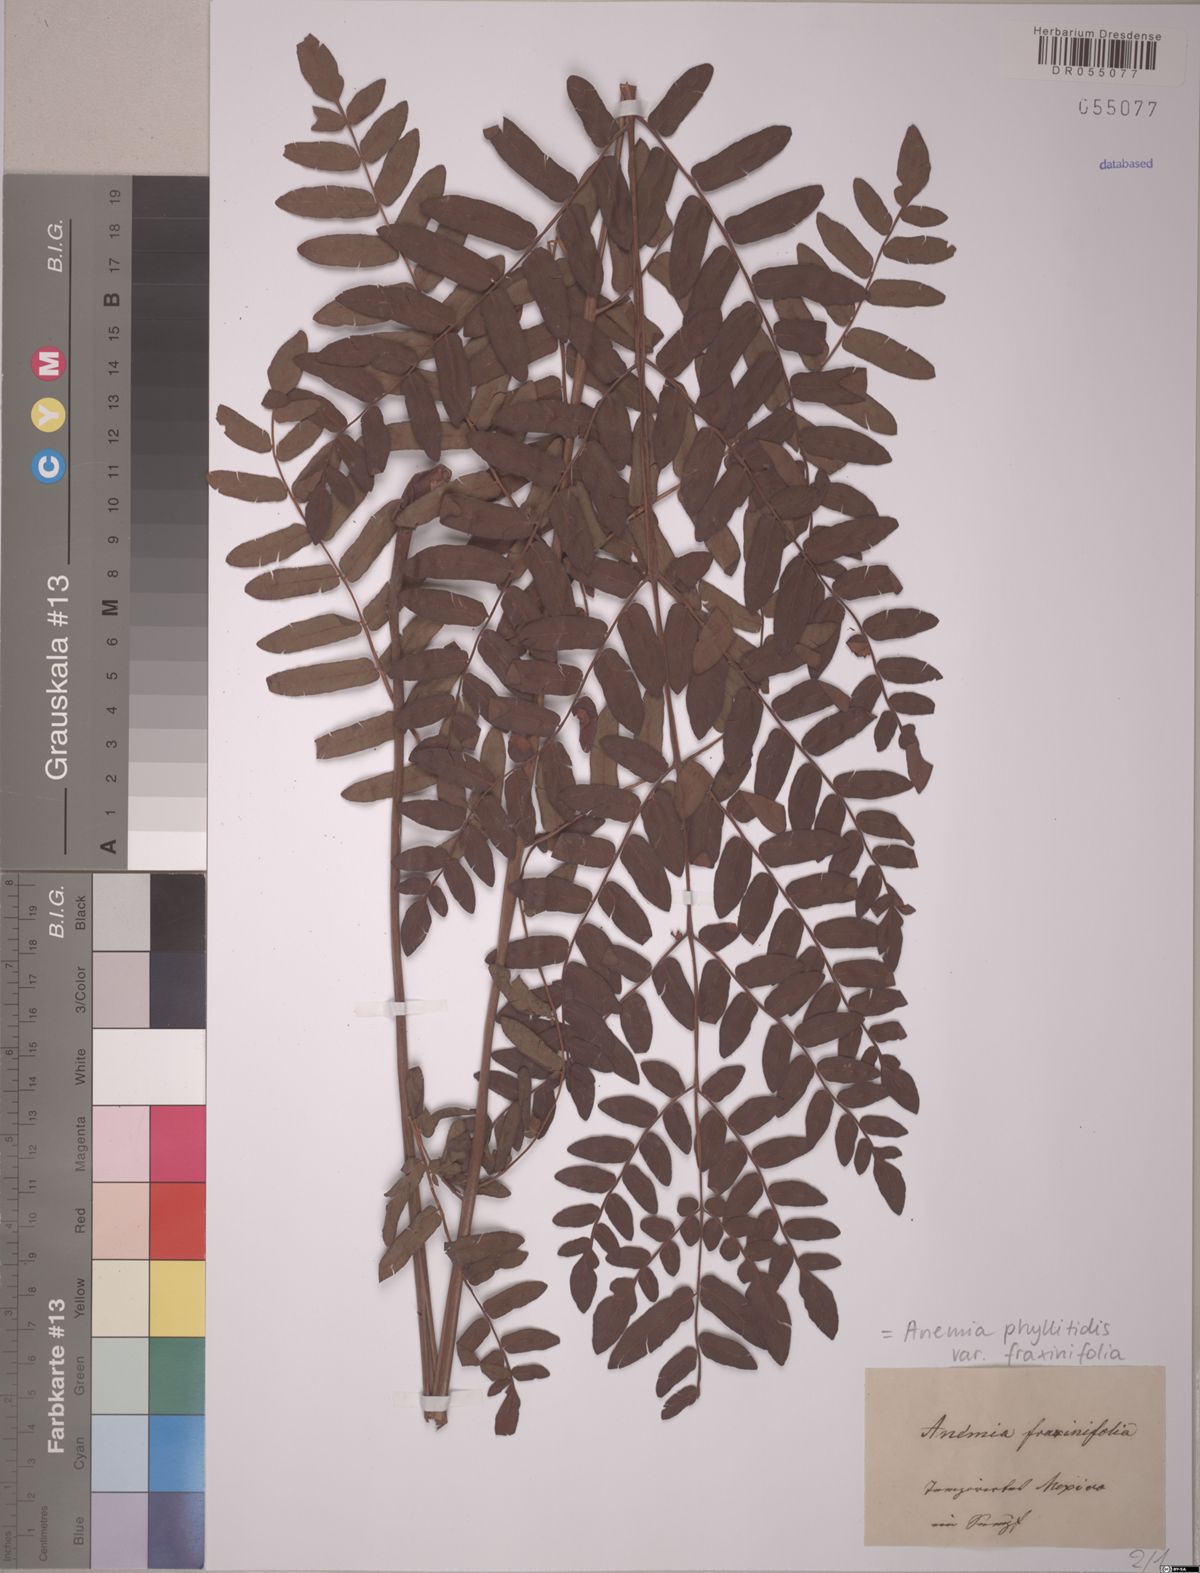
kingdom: Plantae
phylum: Tracheophyta
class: Polypodiopsida
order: Schizaeales
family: Anemiaceae
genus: Anemia
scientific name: Anemia phyllitidis
